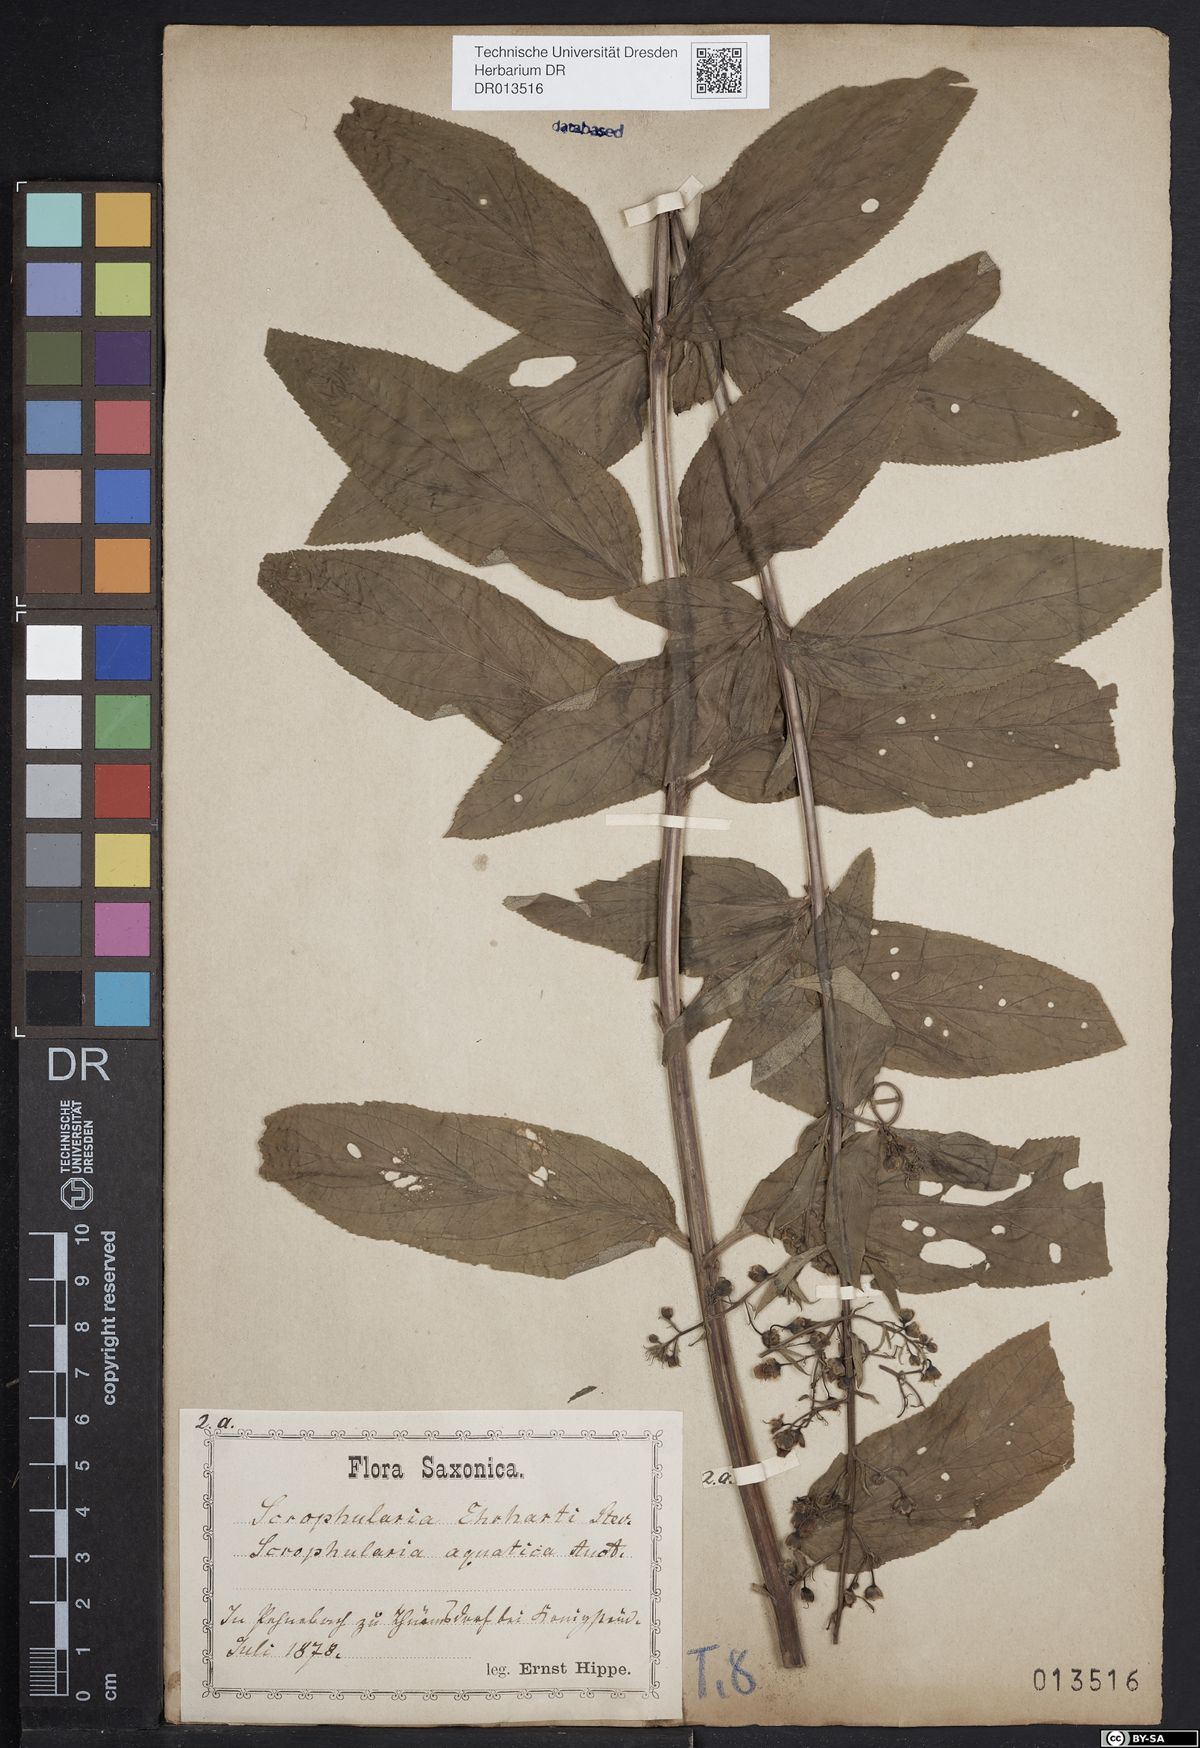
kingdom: Plantae
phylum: Tracheophyta
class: Magnoliopsida
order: Lamiales
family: Scrophulariaceae
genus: Scrophularia
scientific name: Scrophularia umbrosa
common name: Green figwort
